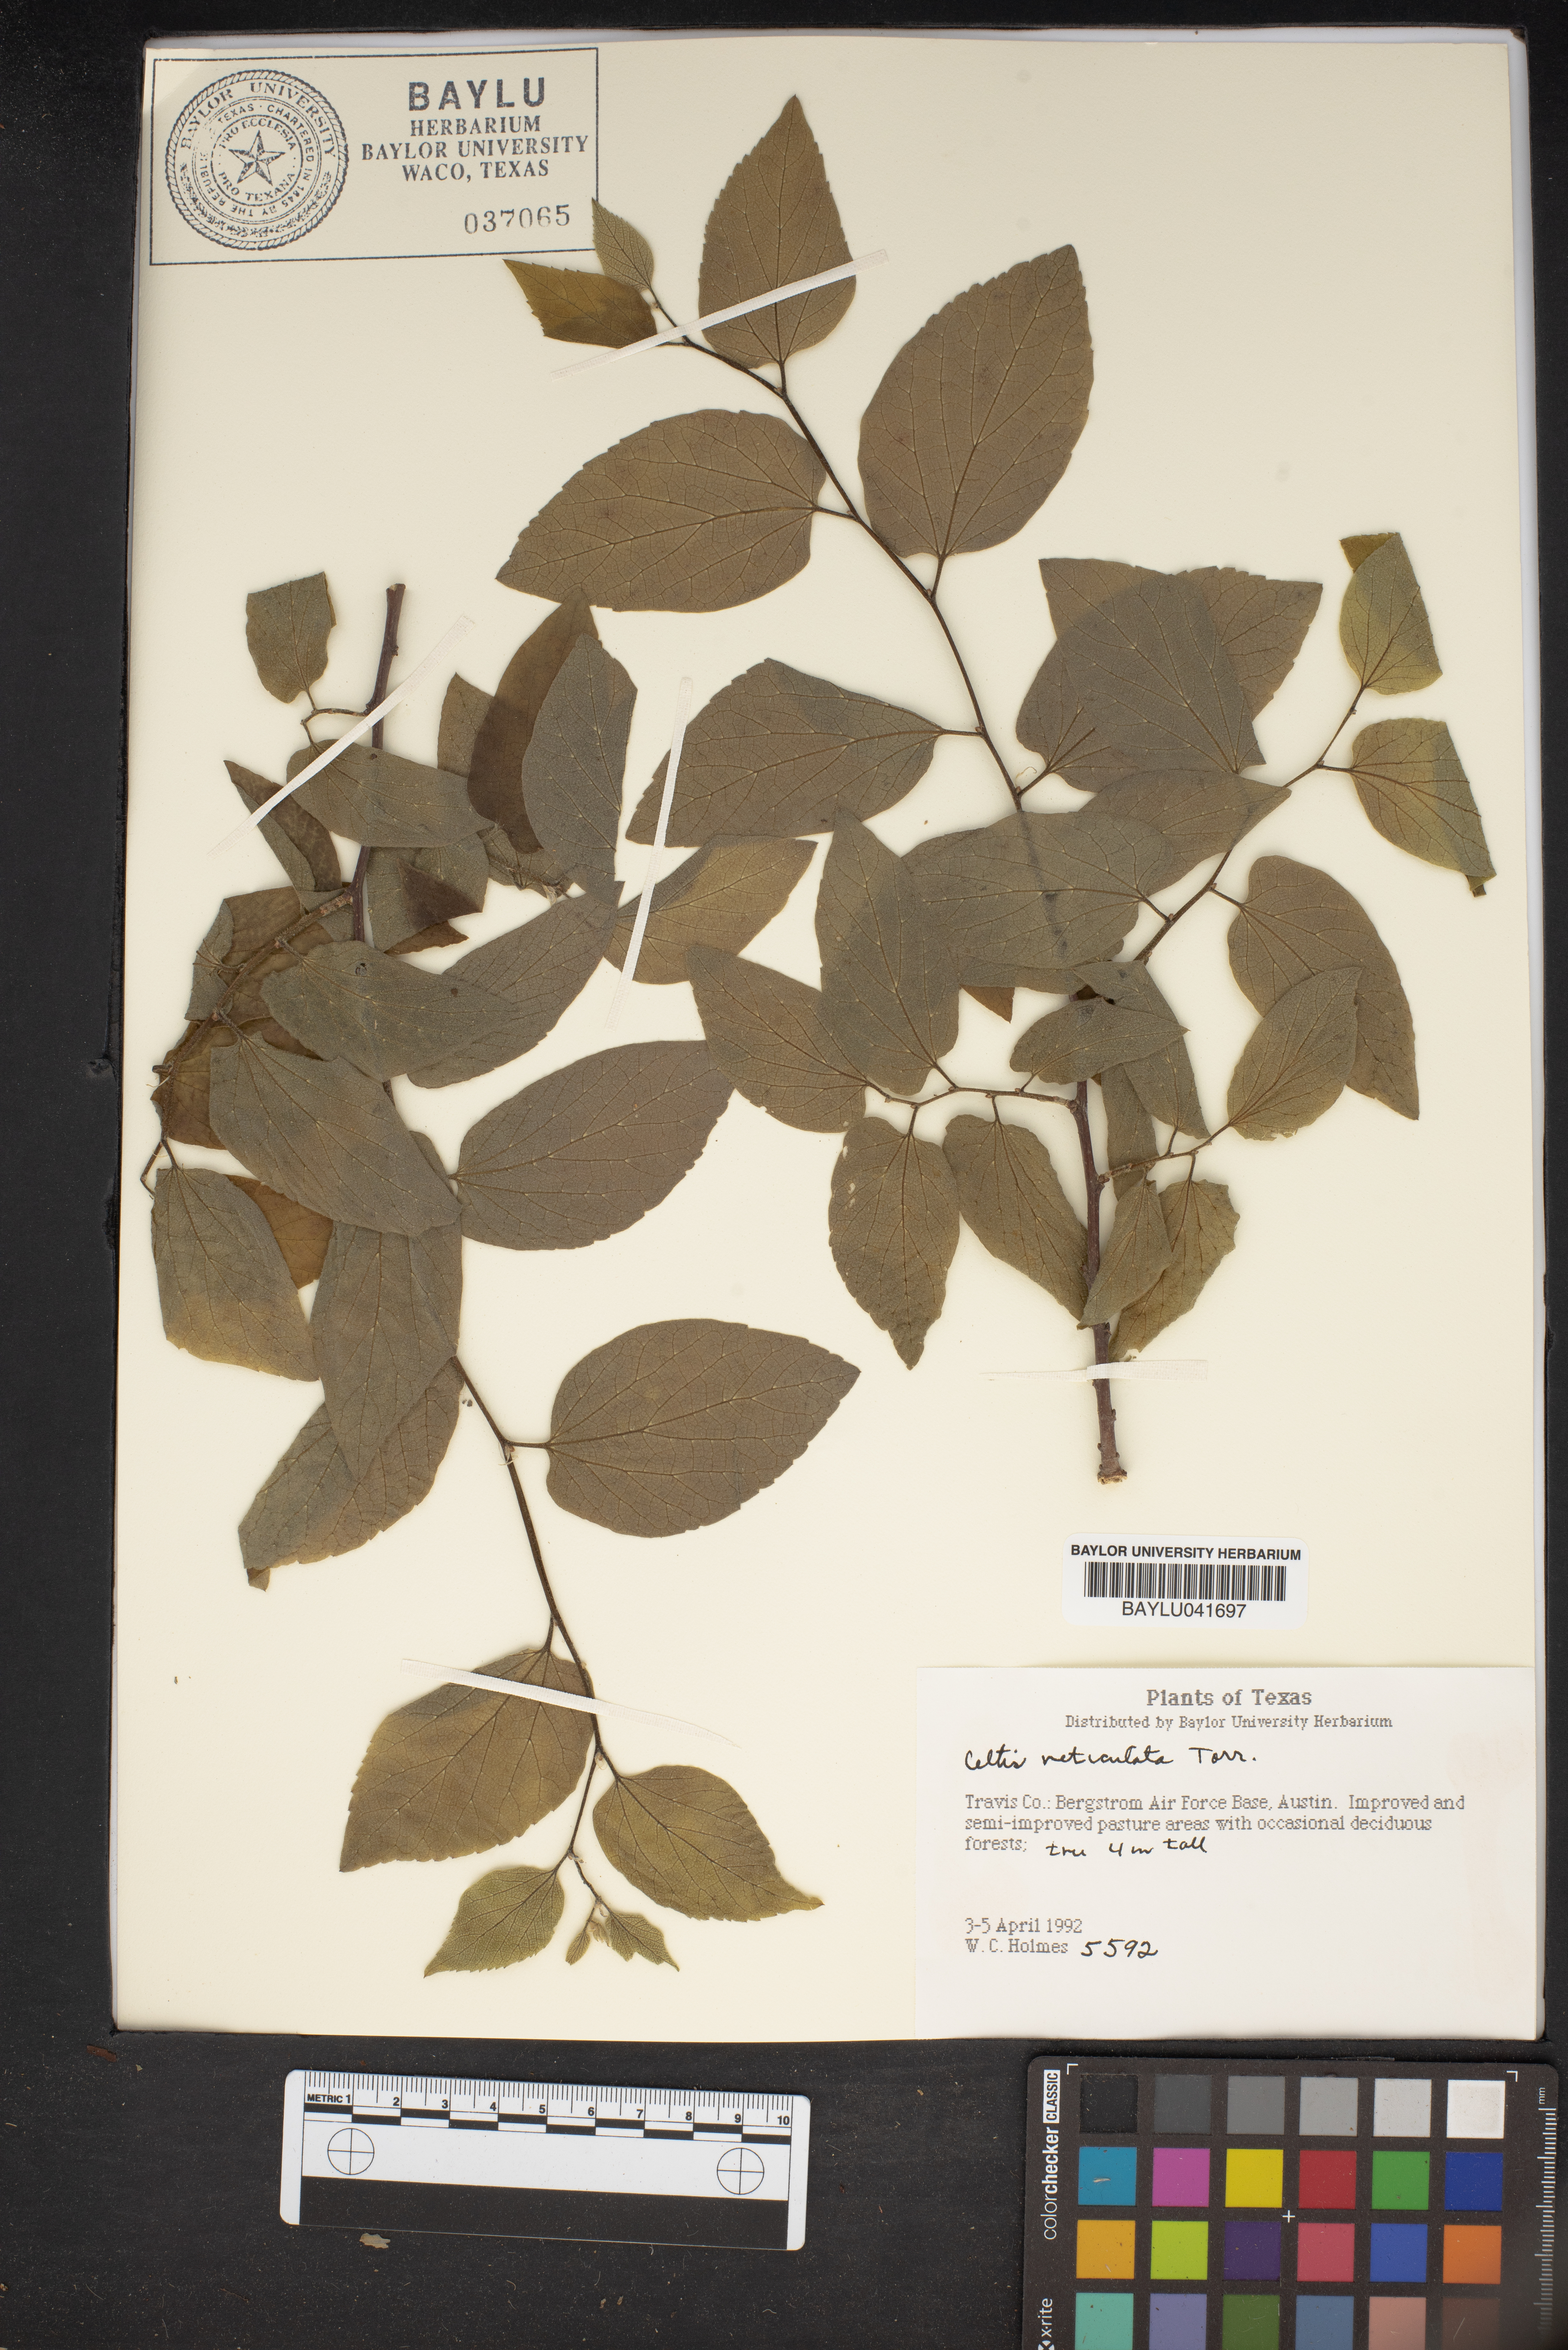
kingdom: Plantae
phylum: Tracheophyta
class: Magnoliopsida
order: Rosales
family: Cannabaceae
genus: Celtis
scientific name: Celtis reticulata
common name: Netleaf hackberry
